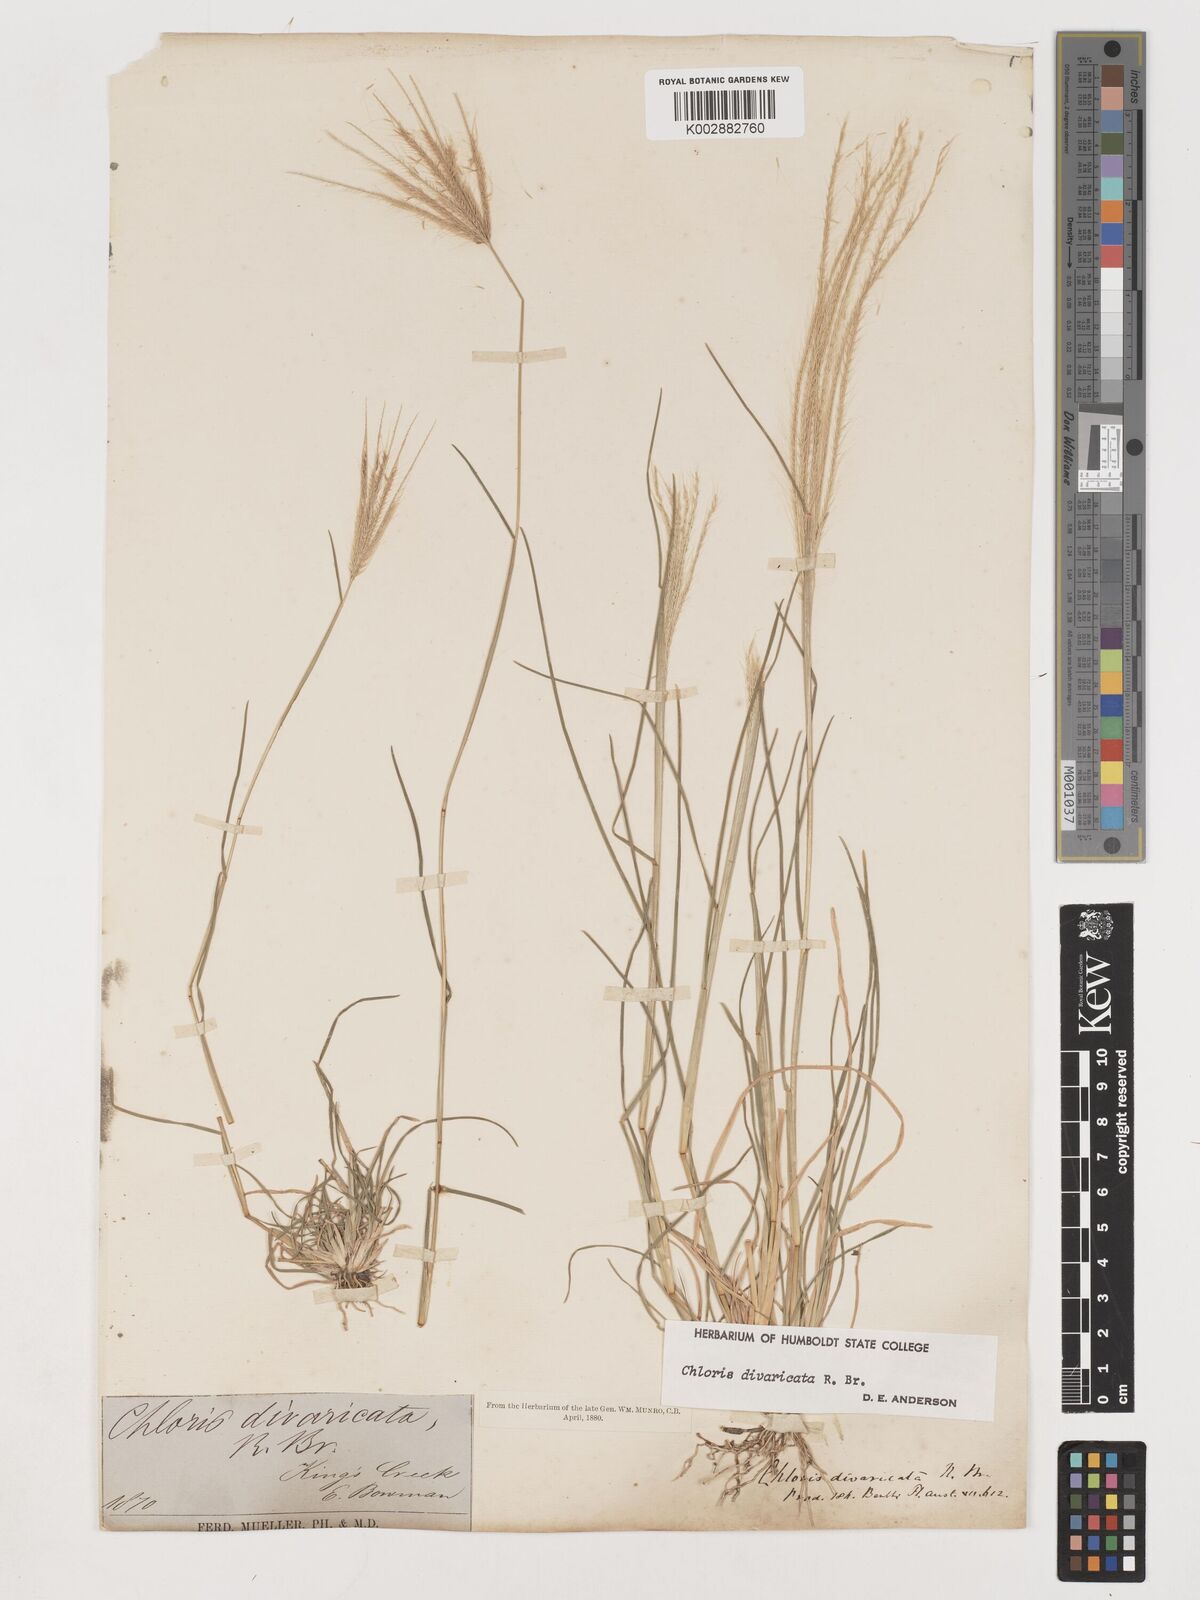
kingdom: Plantae
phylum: Tracheophyta
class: Liliopsida
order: Poales
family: Poaceae
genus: Chloris
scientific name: Chloris divaricata
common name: Spreading windmill grass
